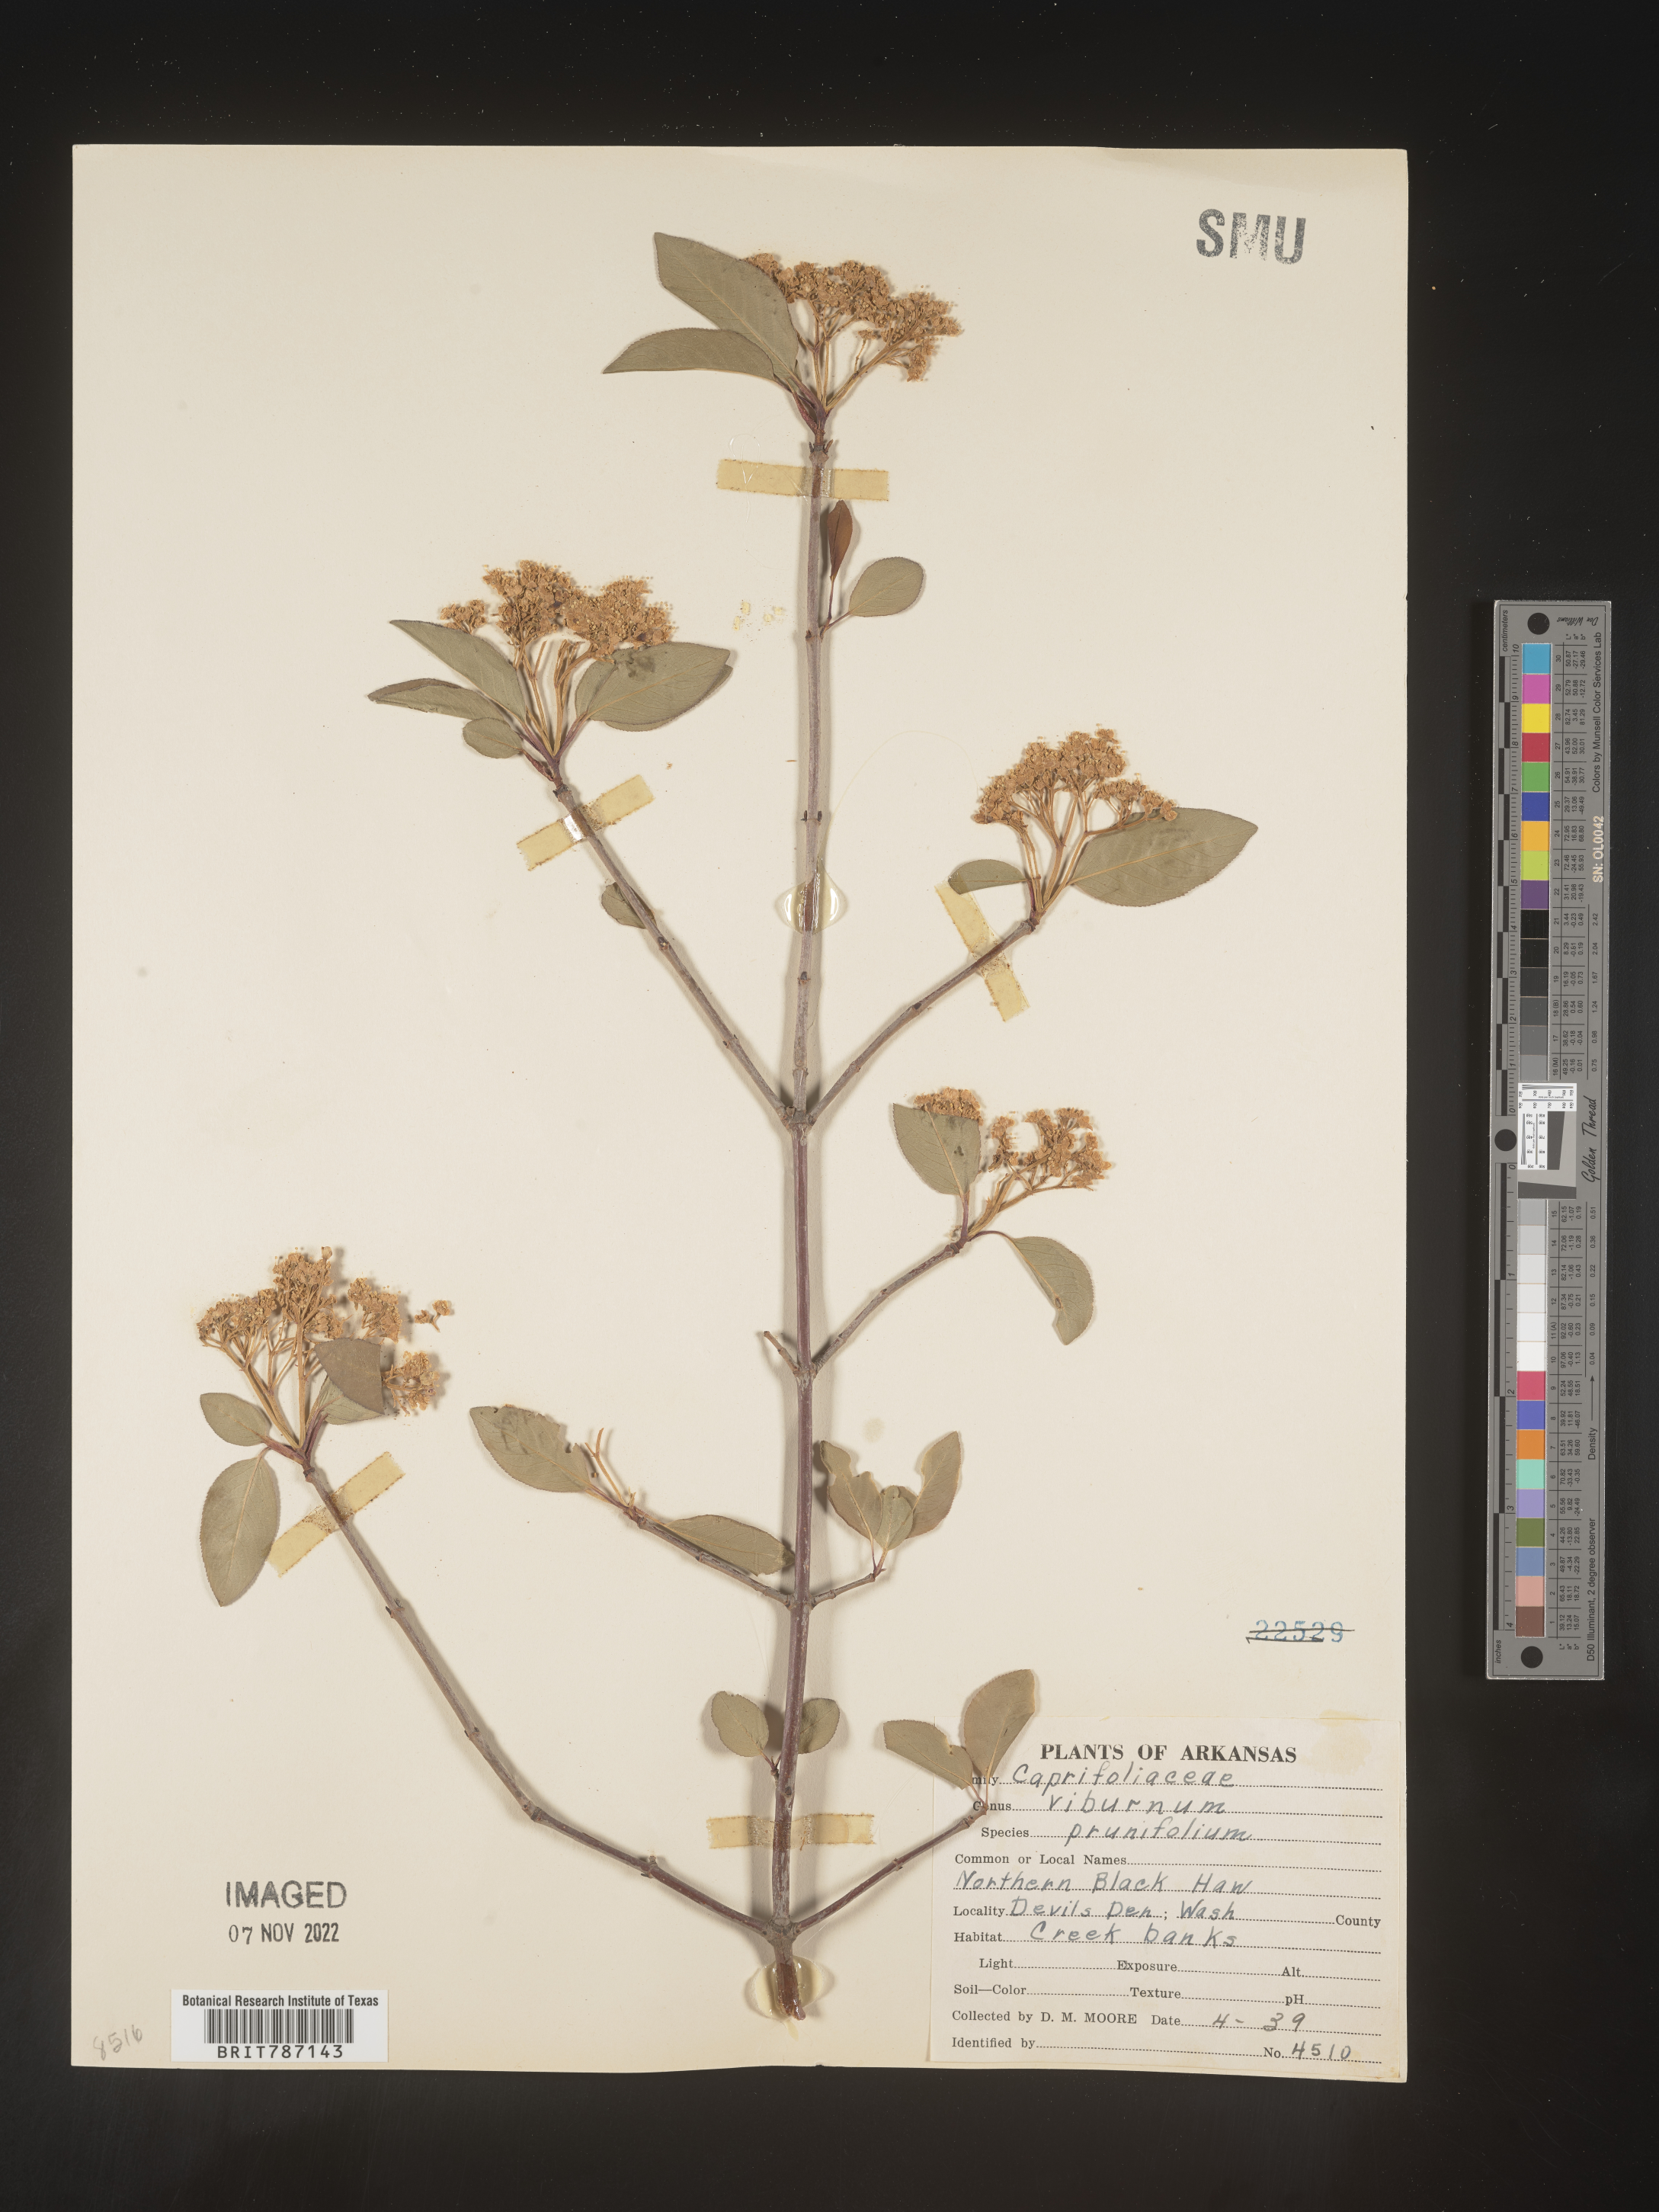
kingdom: Plantae
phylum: Tracheophyta
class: Magnoliopsida
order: Dipsacales
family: Viburnaceae
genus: Viburnum
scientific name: Viburnum prunifolium
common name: Black haw
